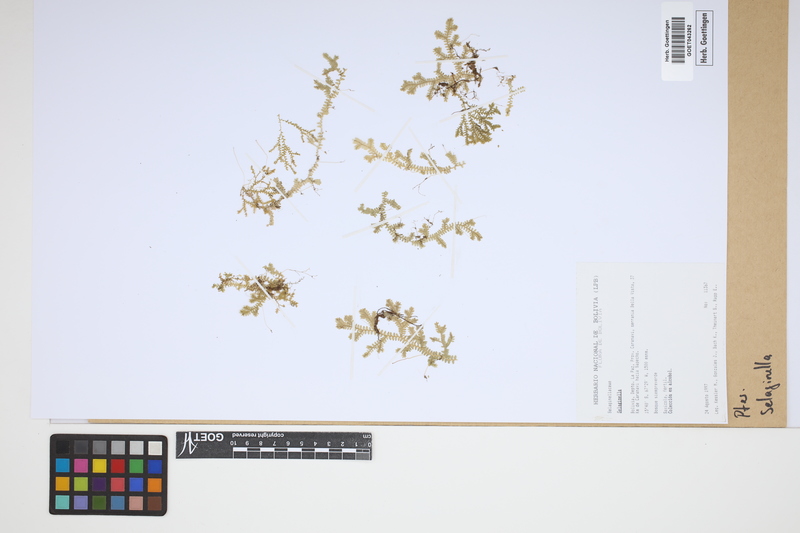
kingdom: Plantae
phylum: Tracheophyta
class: Lycopodiopsida
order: Selaginellales
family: Selaginellaceae
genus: Selaginella
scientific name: Selaginella
